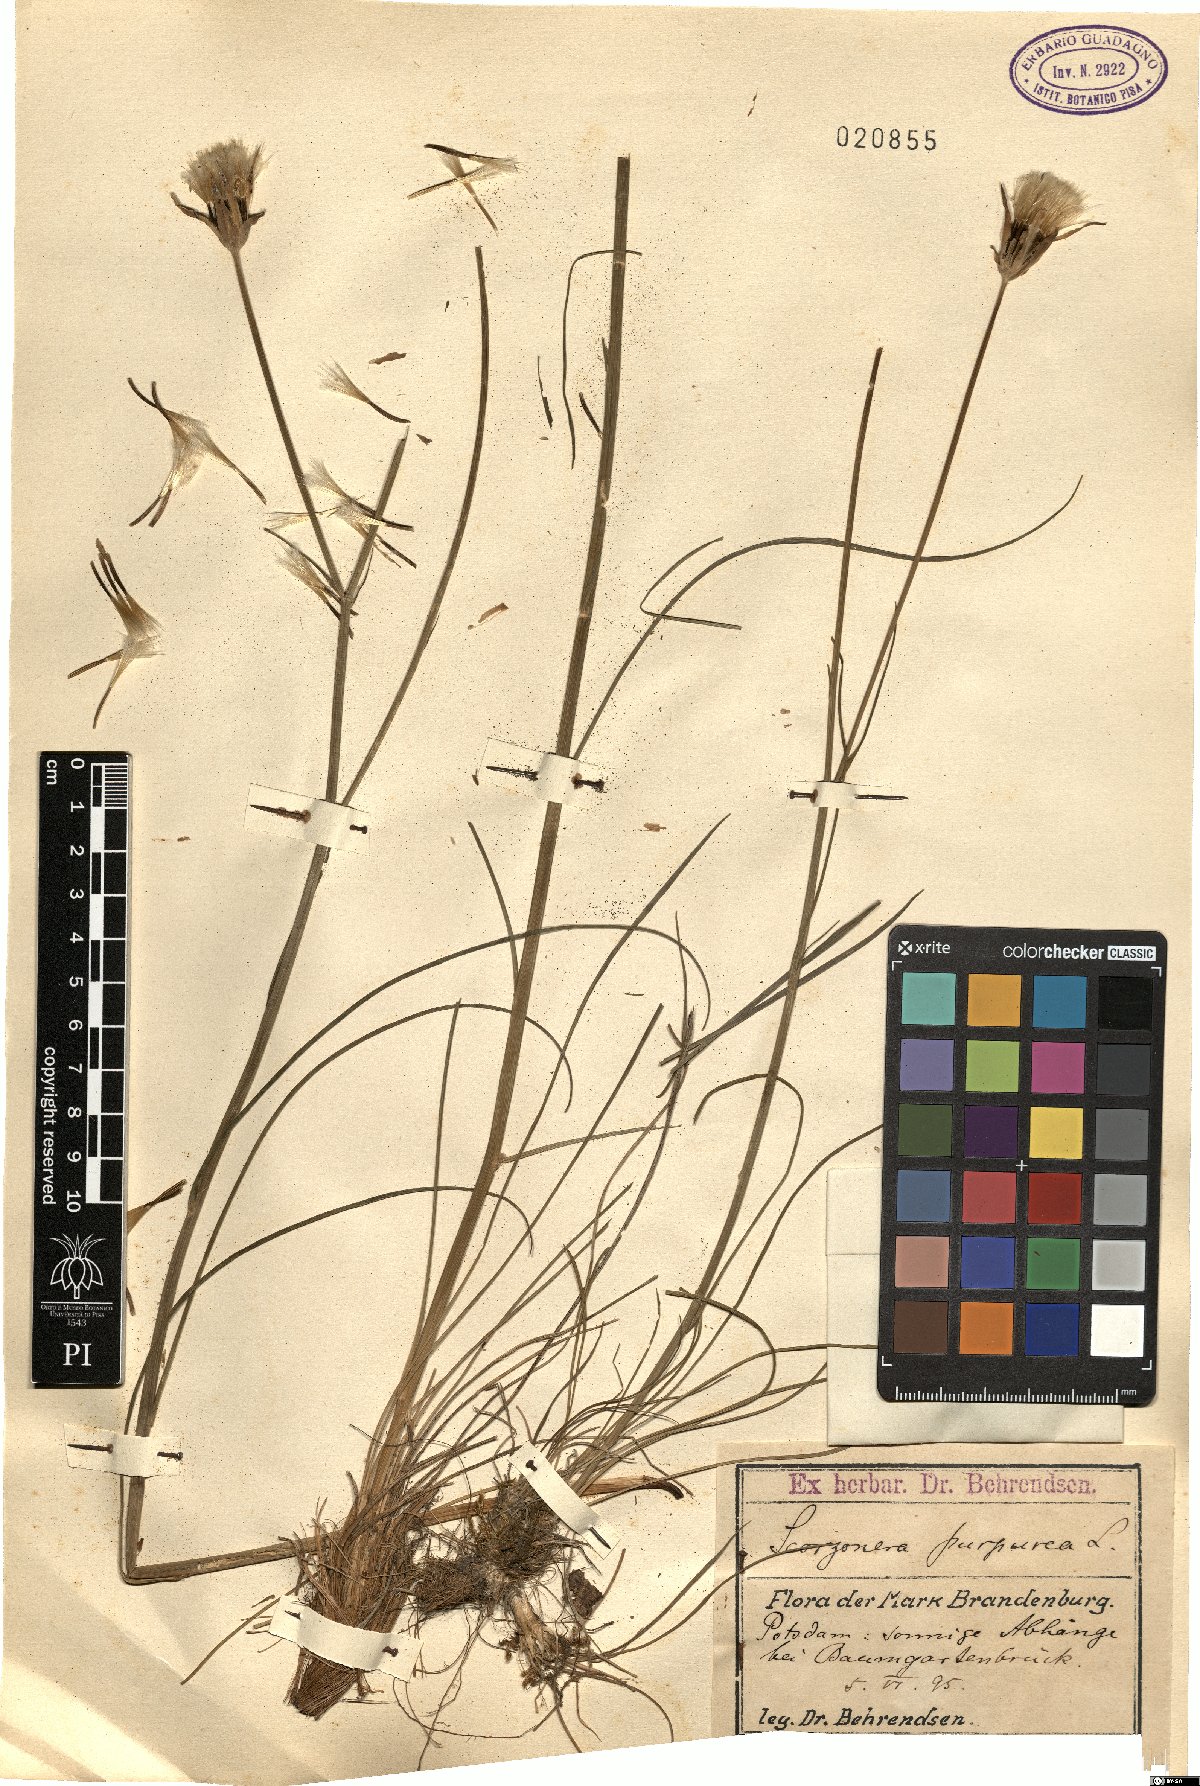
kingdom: Plantae
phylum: Tracheophyta
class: Magnoliopsida
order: Asterales
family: Asteraceae
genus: Scorzonera
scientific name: Scorzonera purpurea
